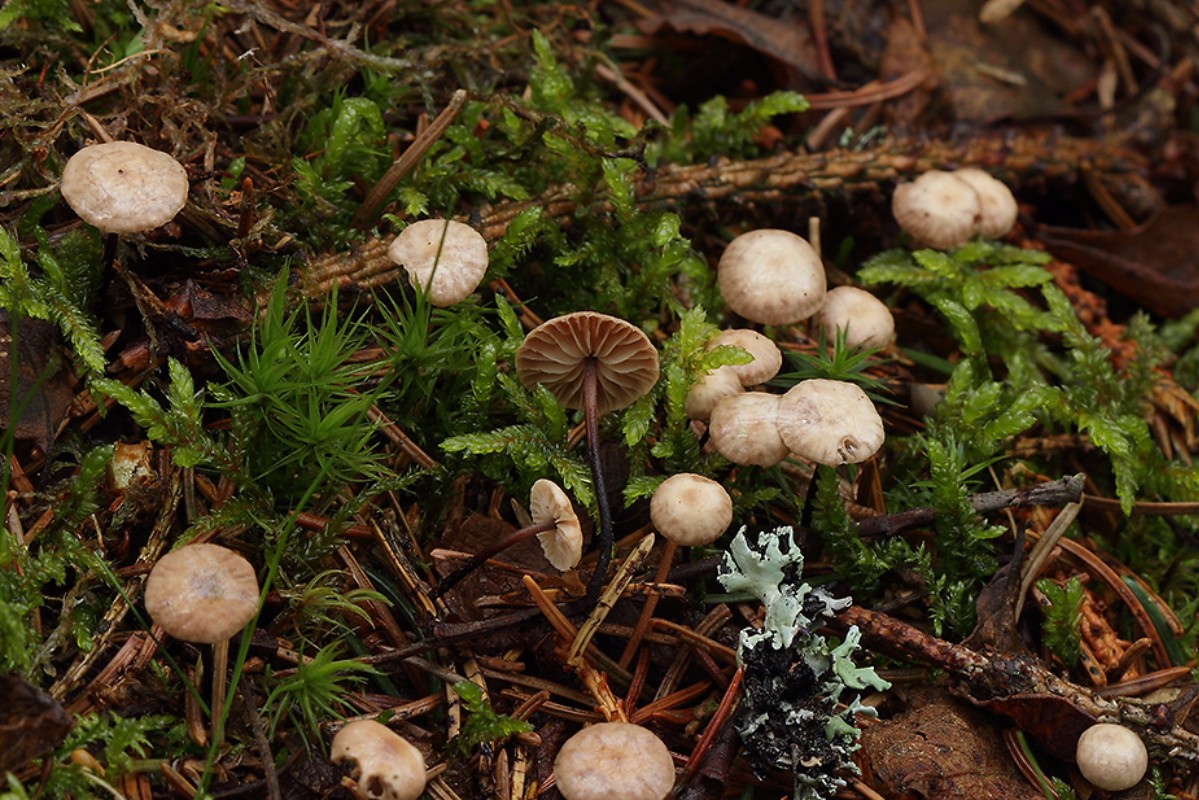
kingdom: Fungi
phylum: Basidiomycota
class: Agaricomycetes
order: Agaricales
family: Omphalotaceae
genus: Paragymnopus
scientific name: Paragymnopus perforans
